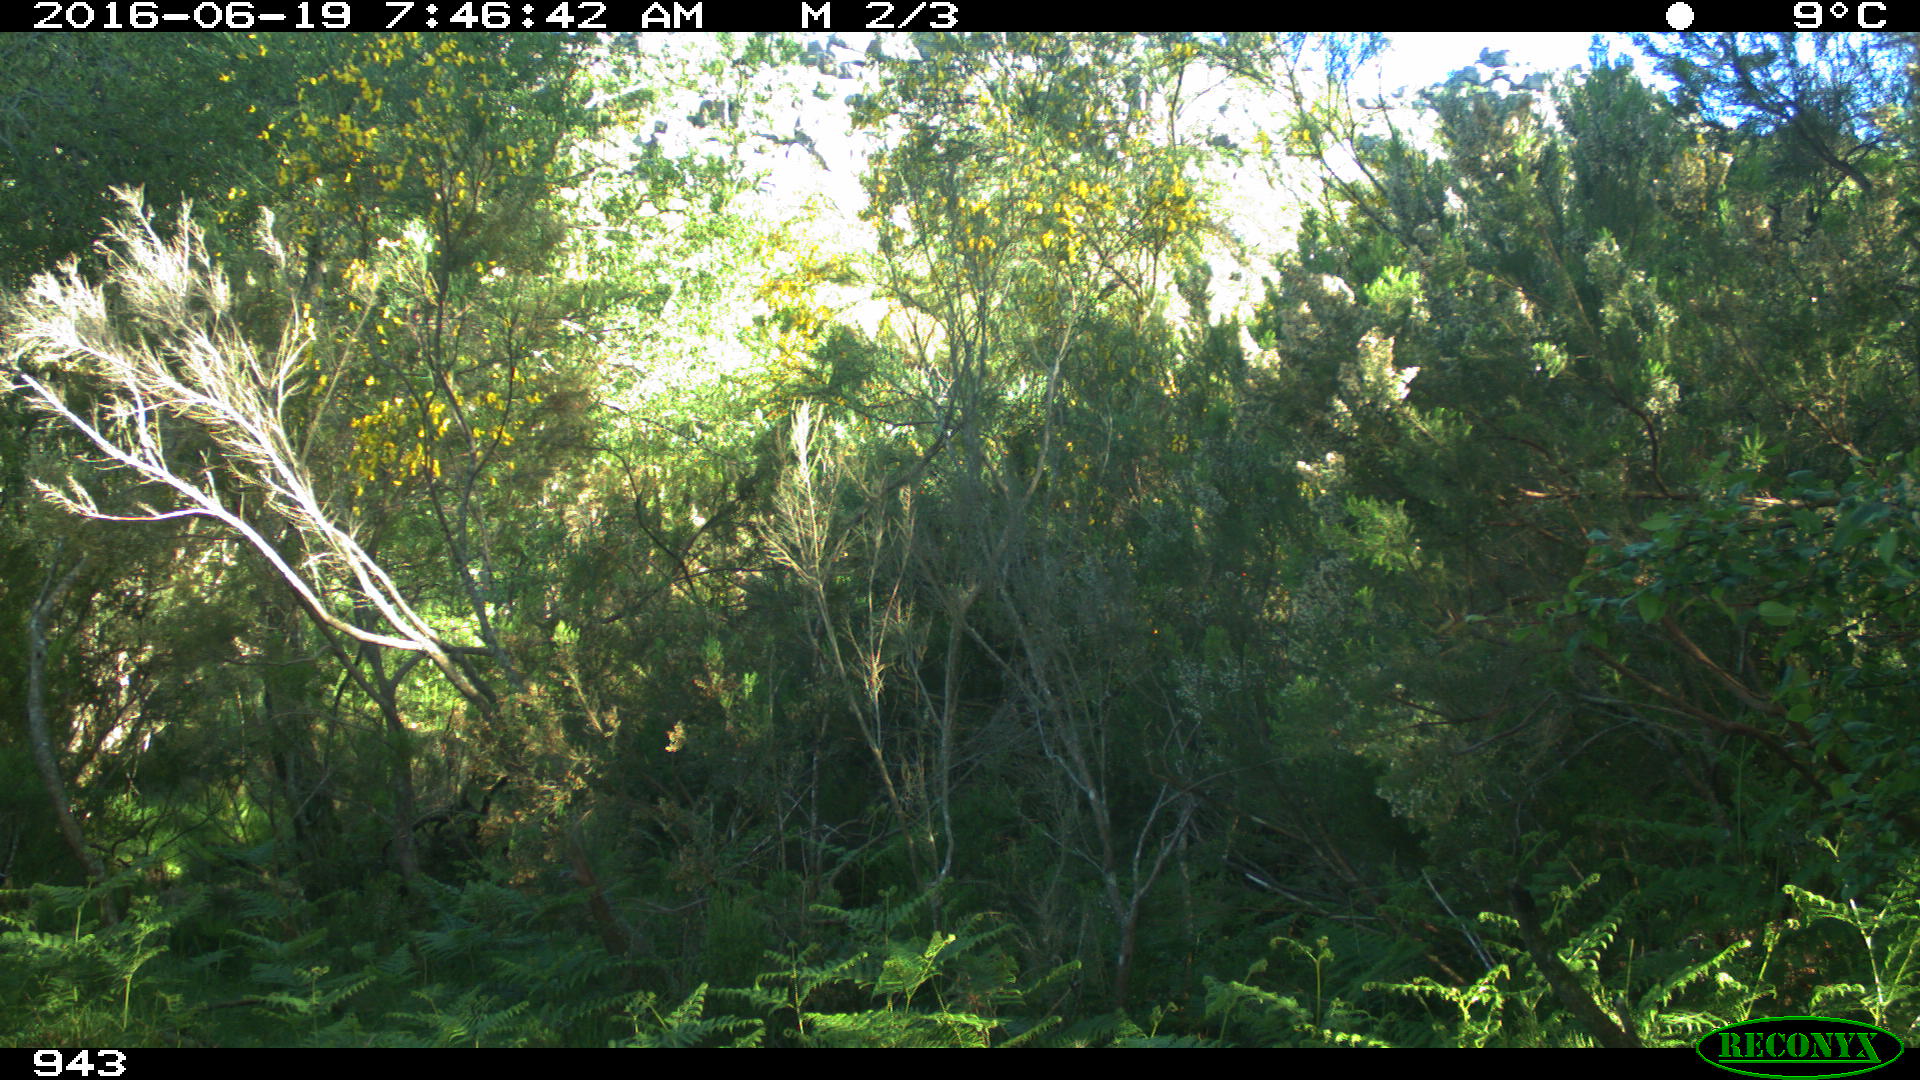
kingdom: Animalia
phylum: Chordata
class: Mammalia
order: Perissodactyla
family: Equidae
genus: Equus
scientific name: Equus caballus
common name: Horse
